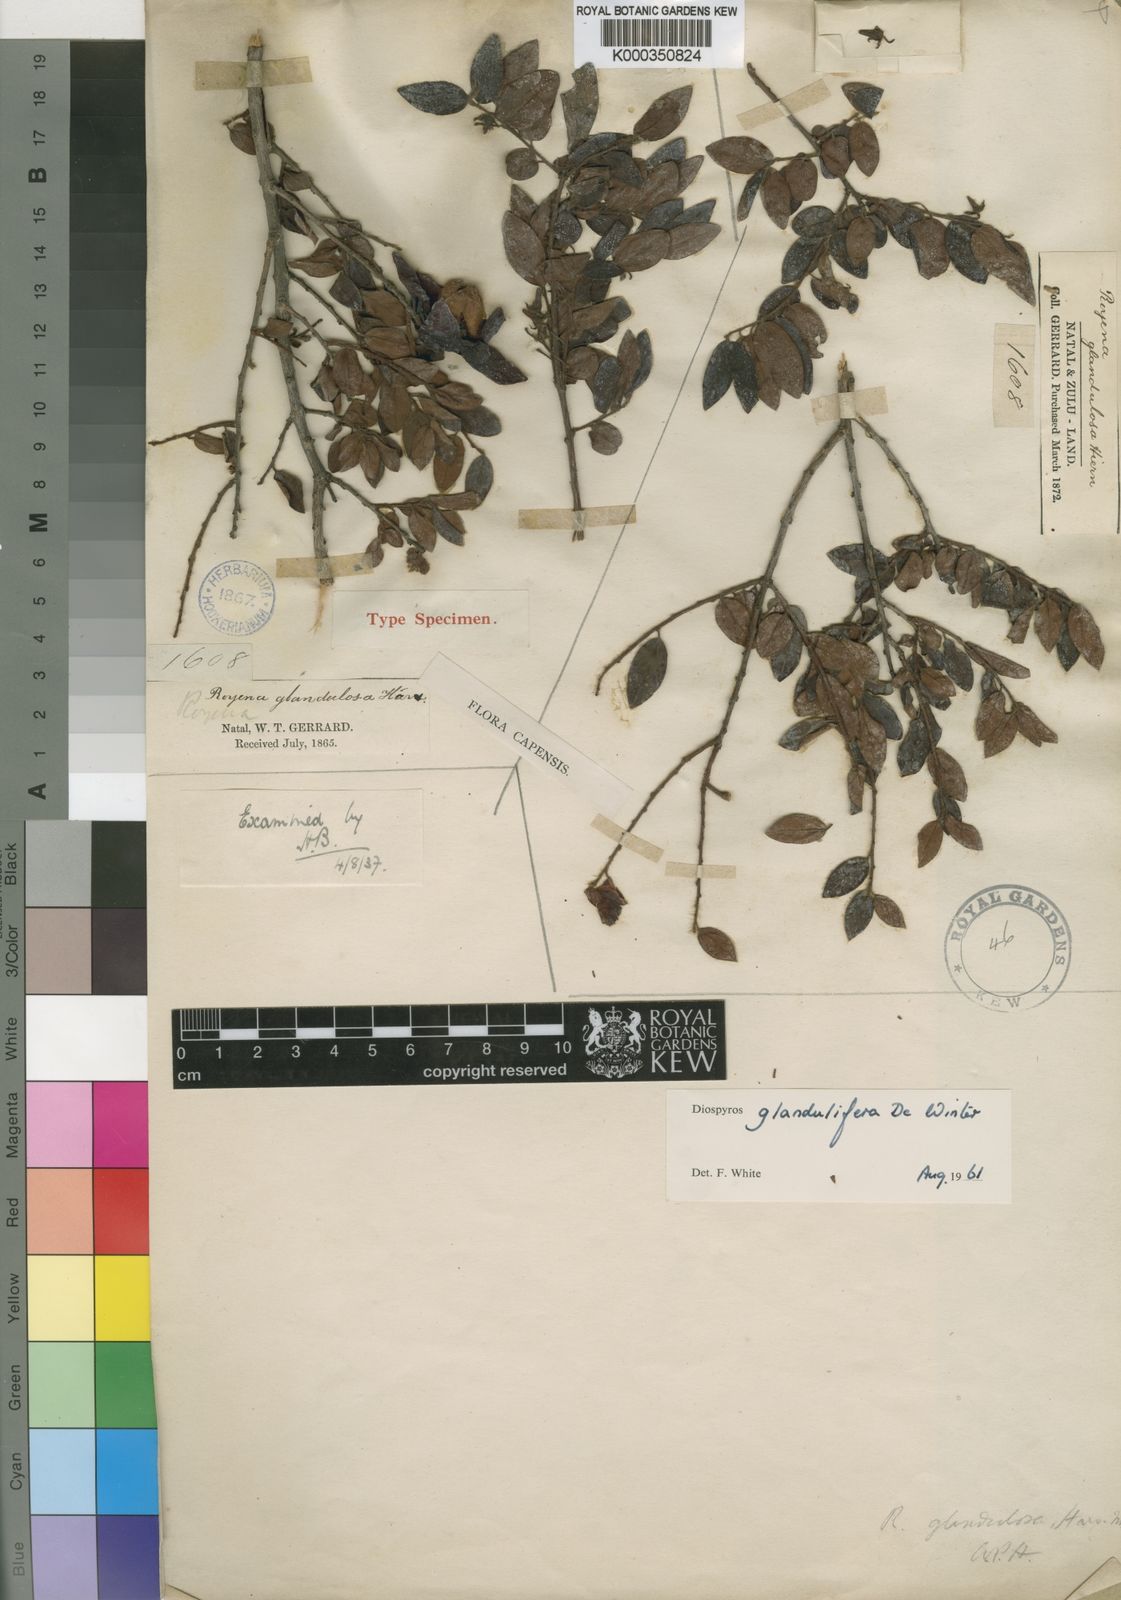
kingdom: Plantae
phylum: Tracheophyta
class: Magnoliopsida
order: Ericales
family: Ebenaceae
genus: Diospyros
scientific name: Diospyros glandulifera
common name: Sticky jackal-berry
